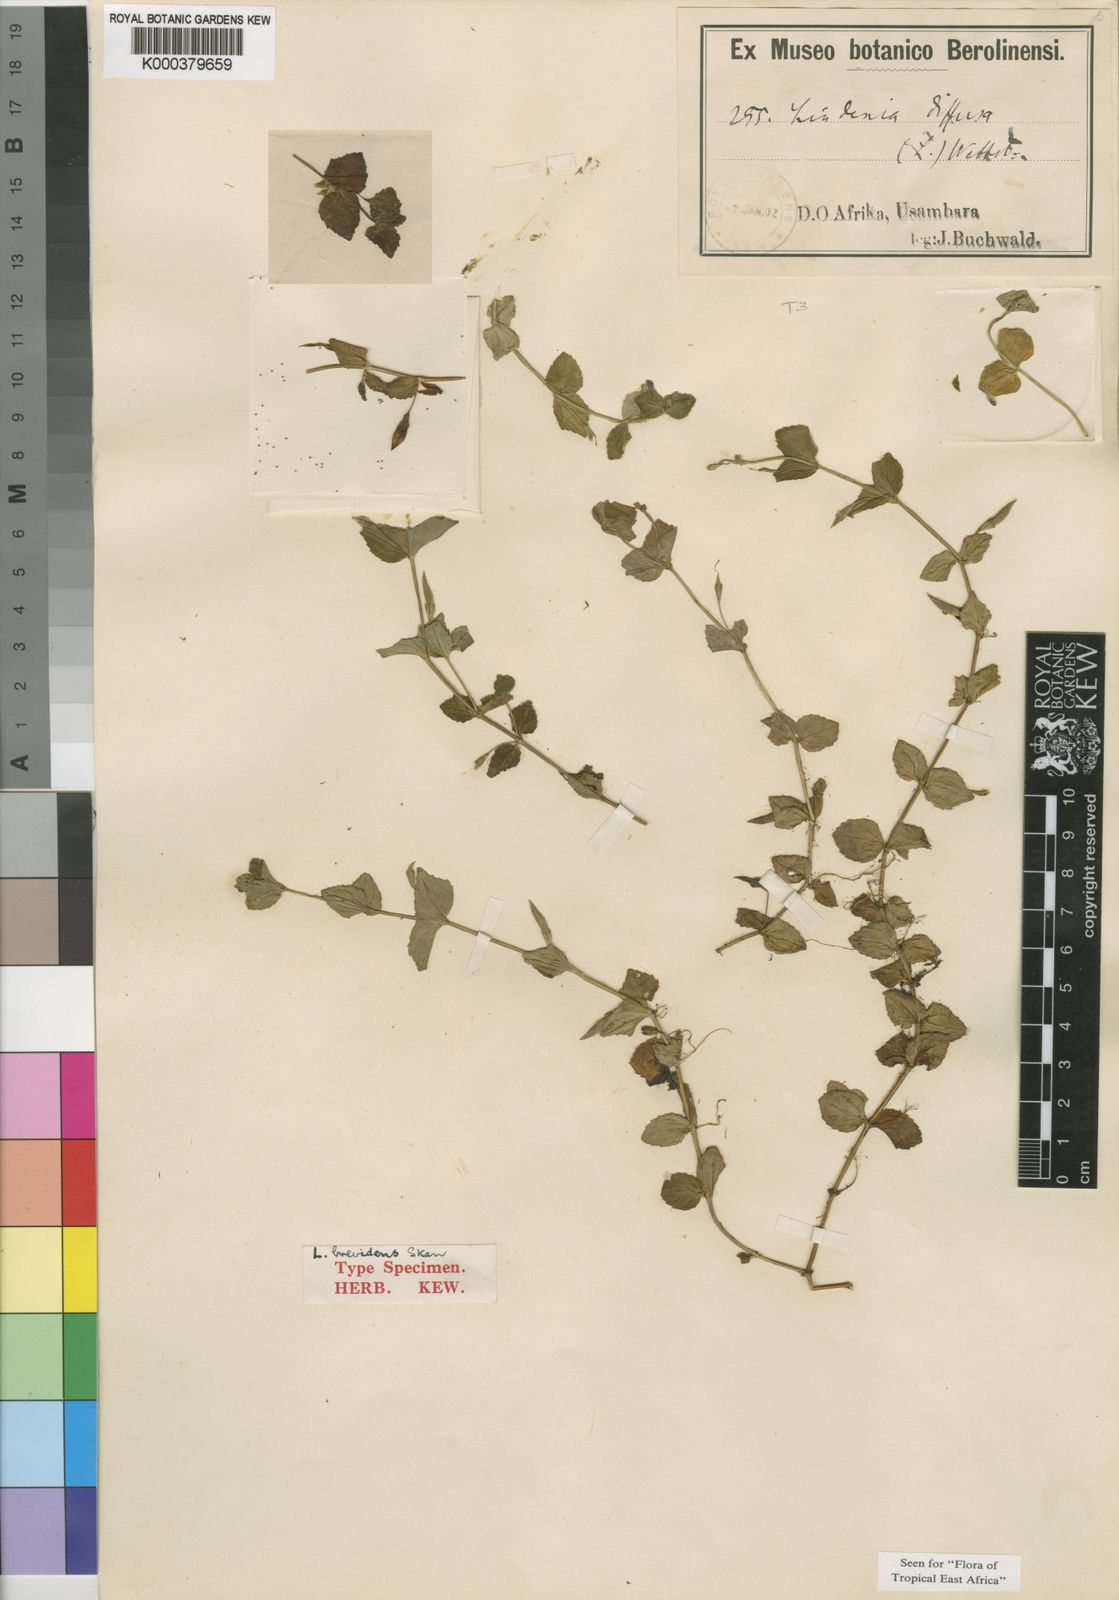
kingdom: Plantae
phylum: Tracheophyta
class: Magnoliopsida
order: Lamiales
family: Linderniaceae
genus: Linderniella
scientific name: Linderniella brevidens
